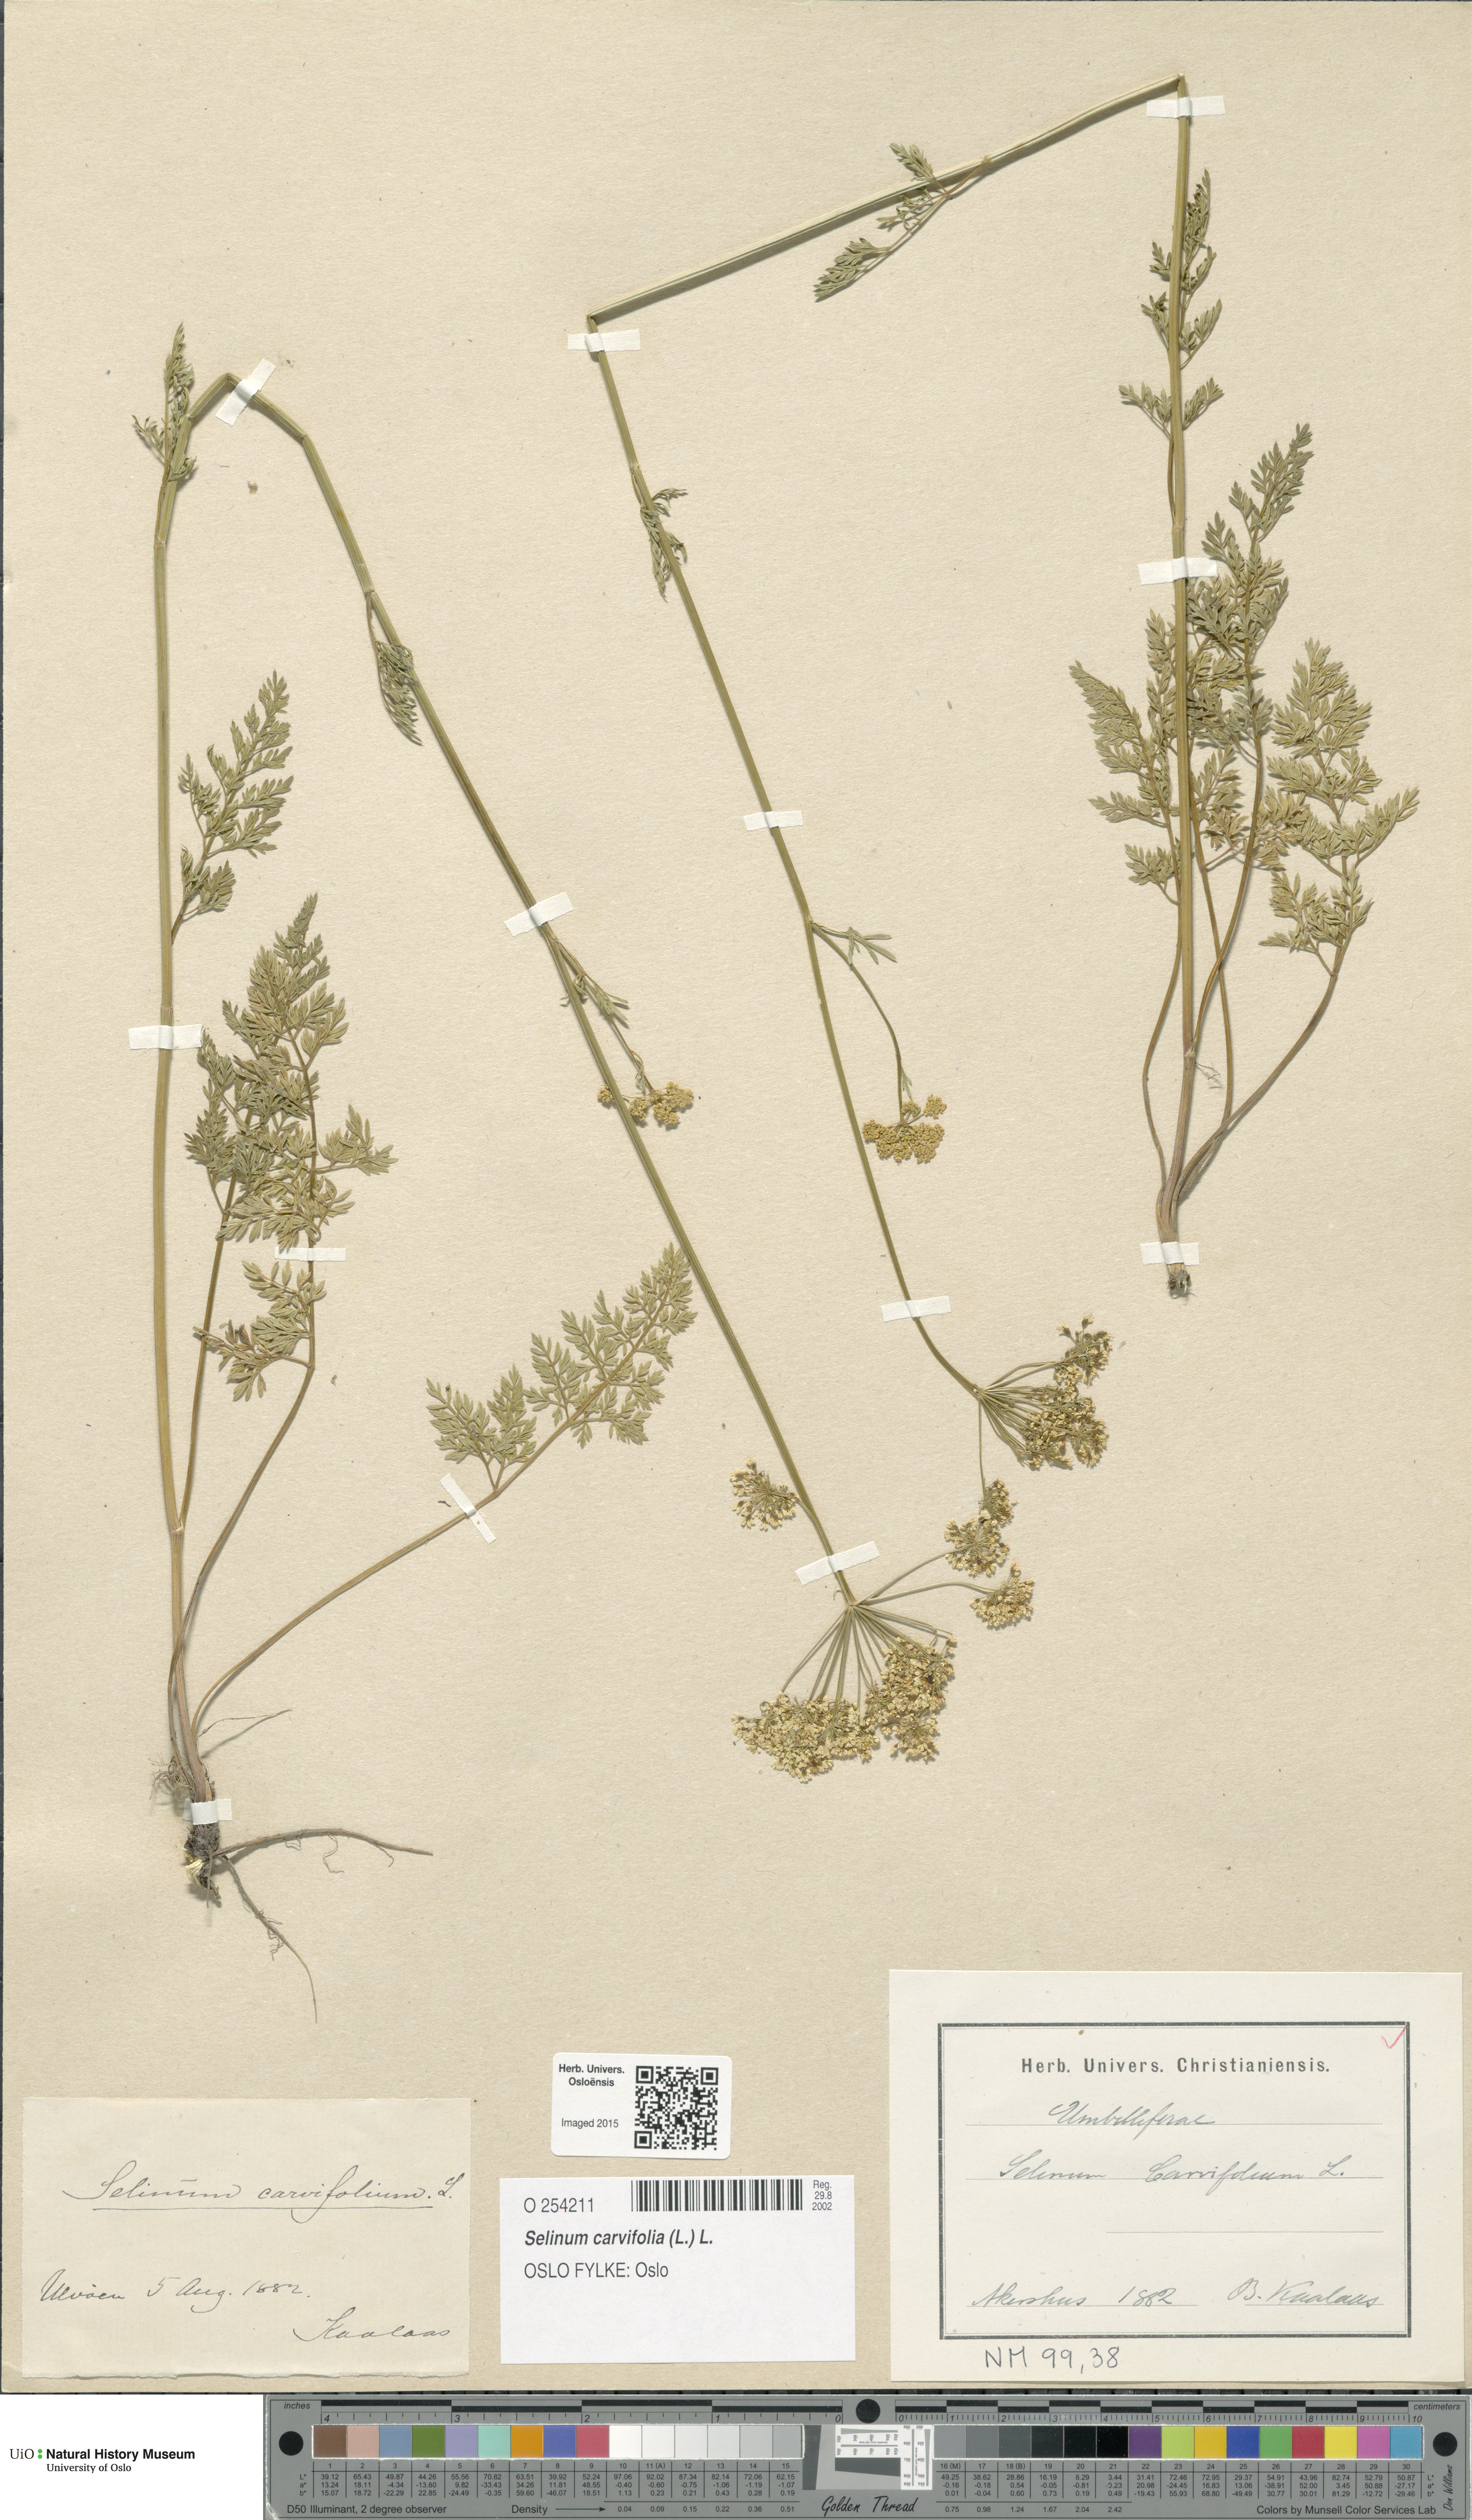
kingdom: Plantae
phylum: Tracheophyta
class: Magnoliopsida
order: Apiales
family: Apiaceae
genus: Selinum
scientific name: Selinum carvifolia
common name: Cambridge milk-parsley
